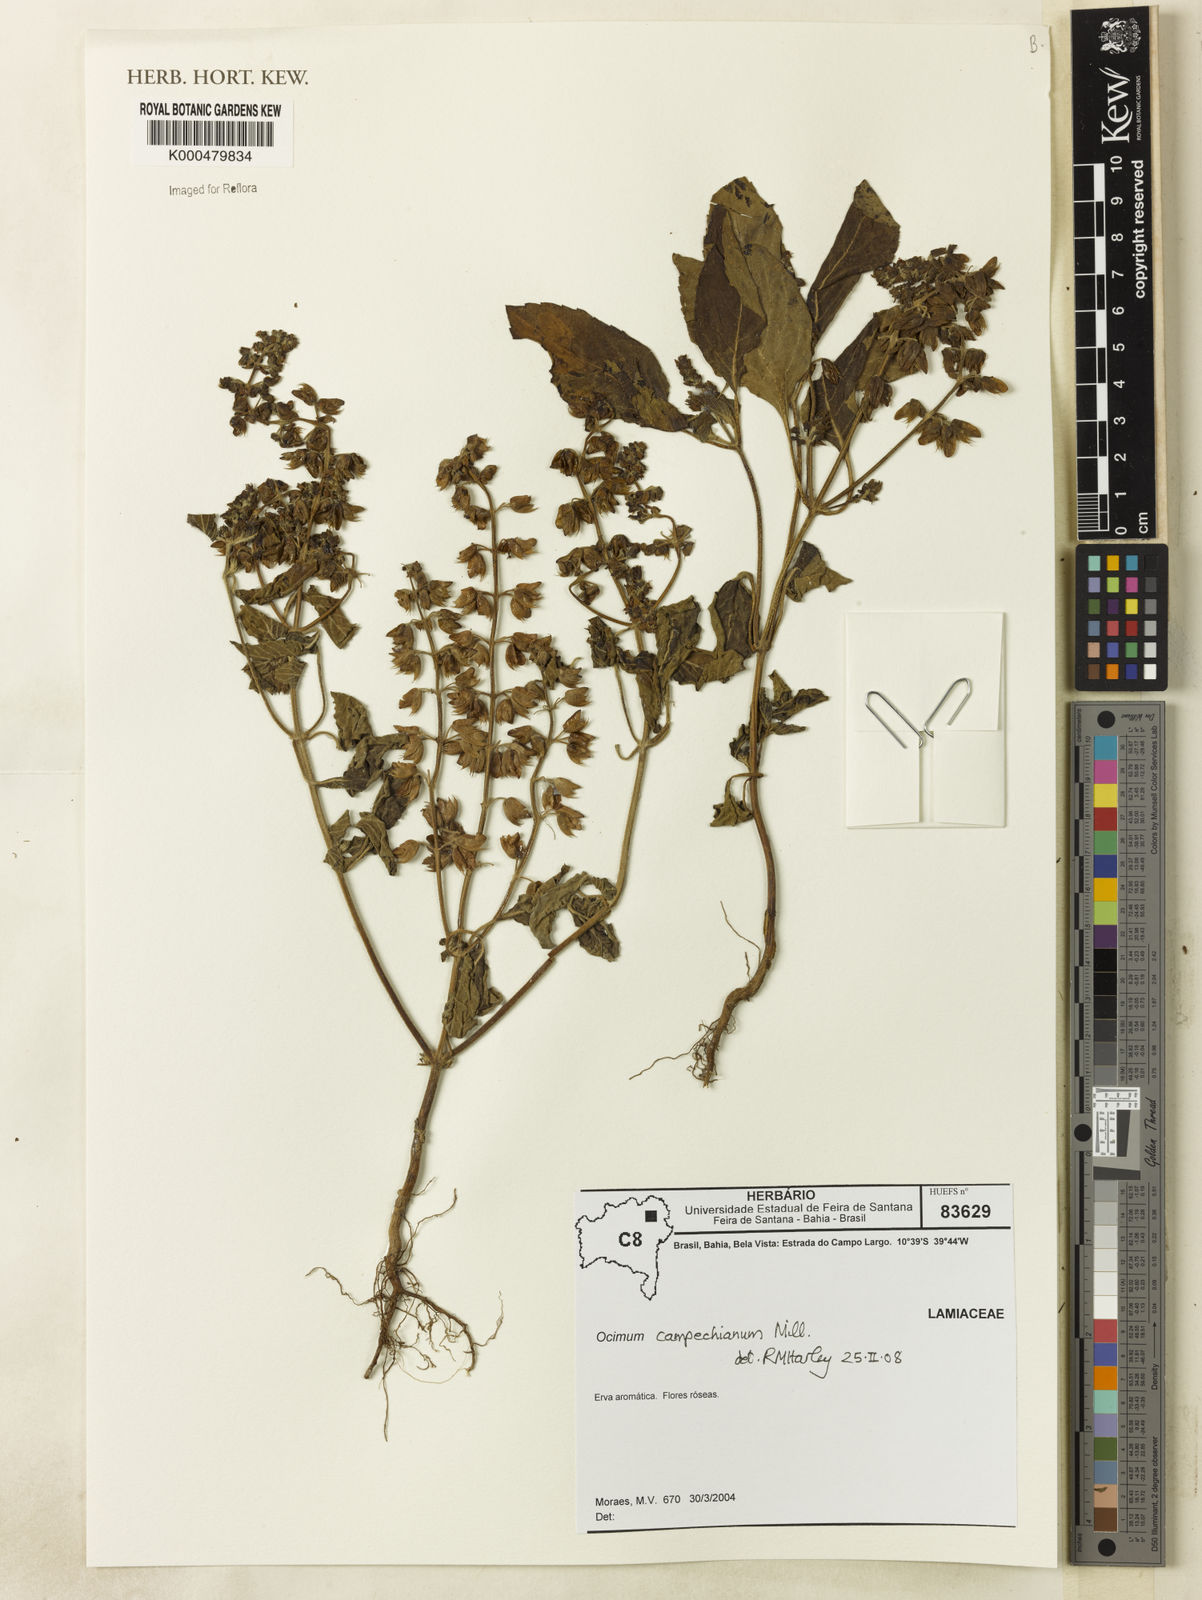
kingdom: Plantae
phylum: Tracheophyta
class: Magnoliopsida
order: Lamiales
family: Lamiaceae
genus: Ocimum
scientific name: Ocimum campechianum
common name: Mosquito basil
